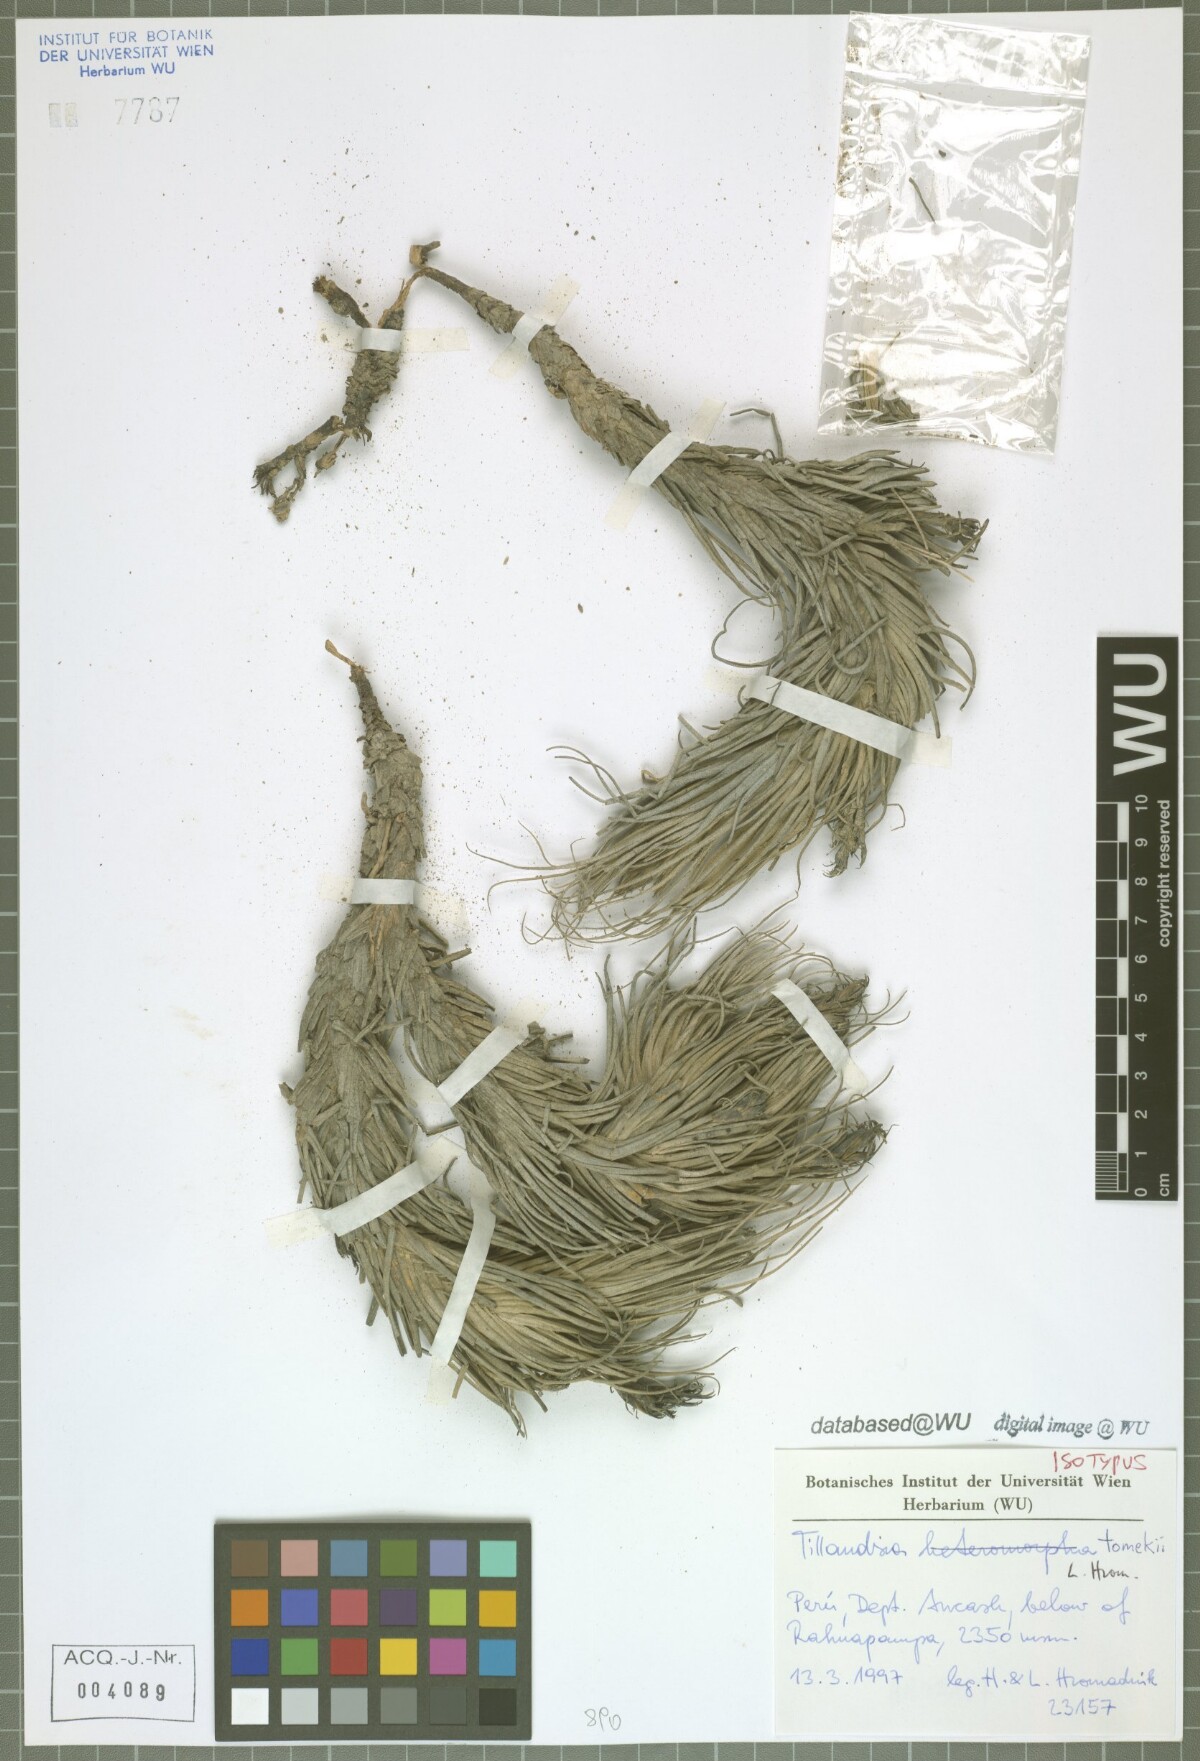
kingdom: Plantae
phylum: Tracheophyta
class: Liliopsida
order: Poales
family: Bromeliaceae
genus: Tillandsia
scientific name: Tillandsia tomekii
